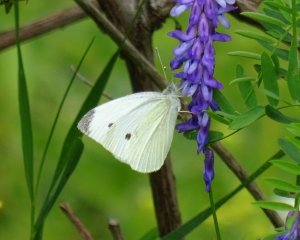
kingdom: Animalia
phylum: Arthropoda
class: Insecta
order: Lepidoptera
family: Pieridae
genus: Pieris
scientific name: Pieris rapae
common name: Cabbage White
